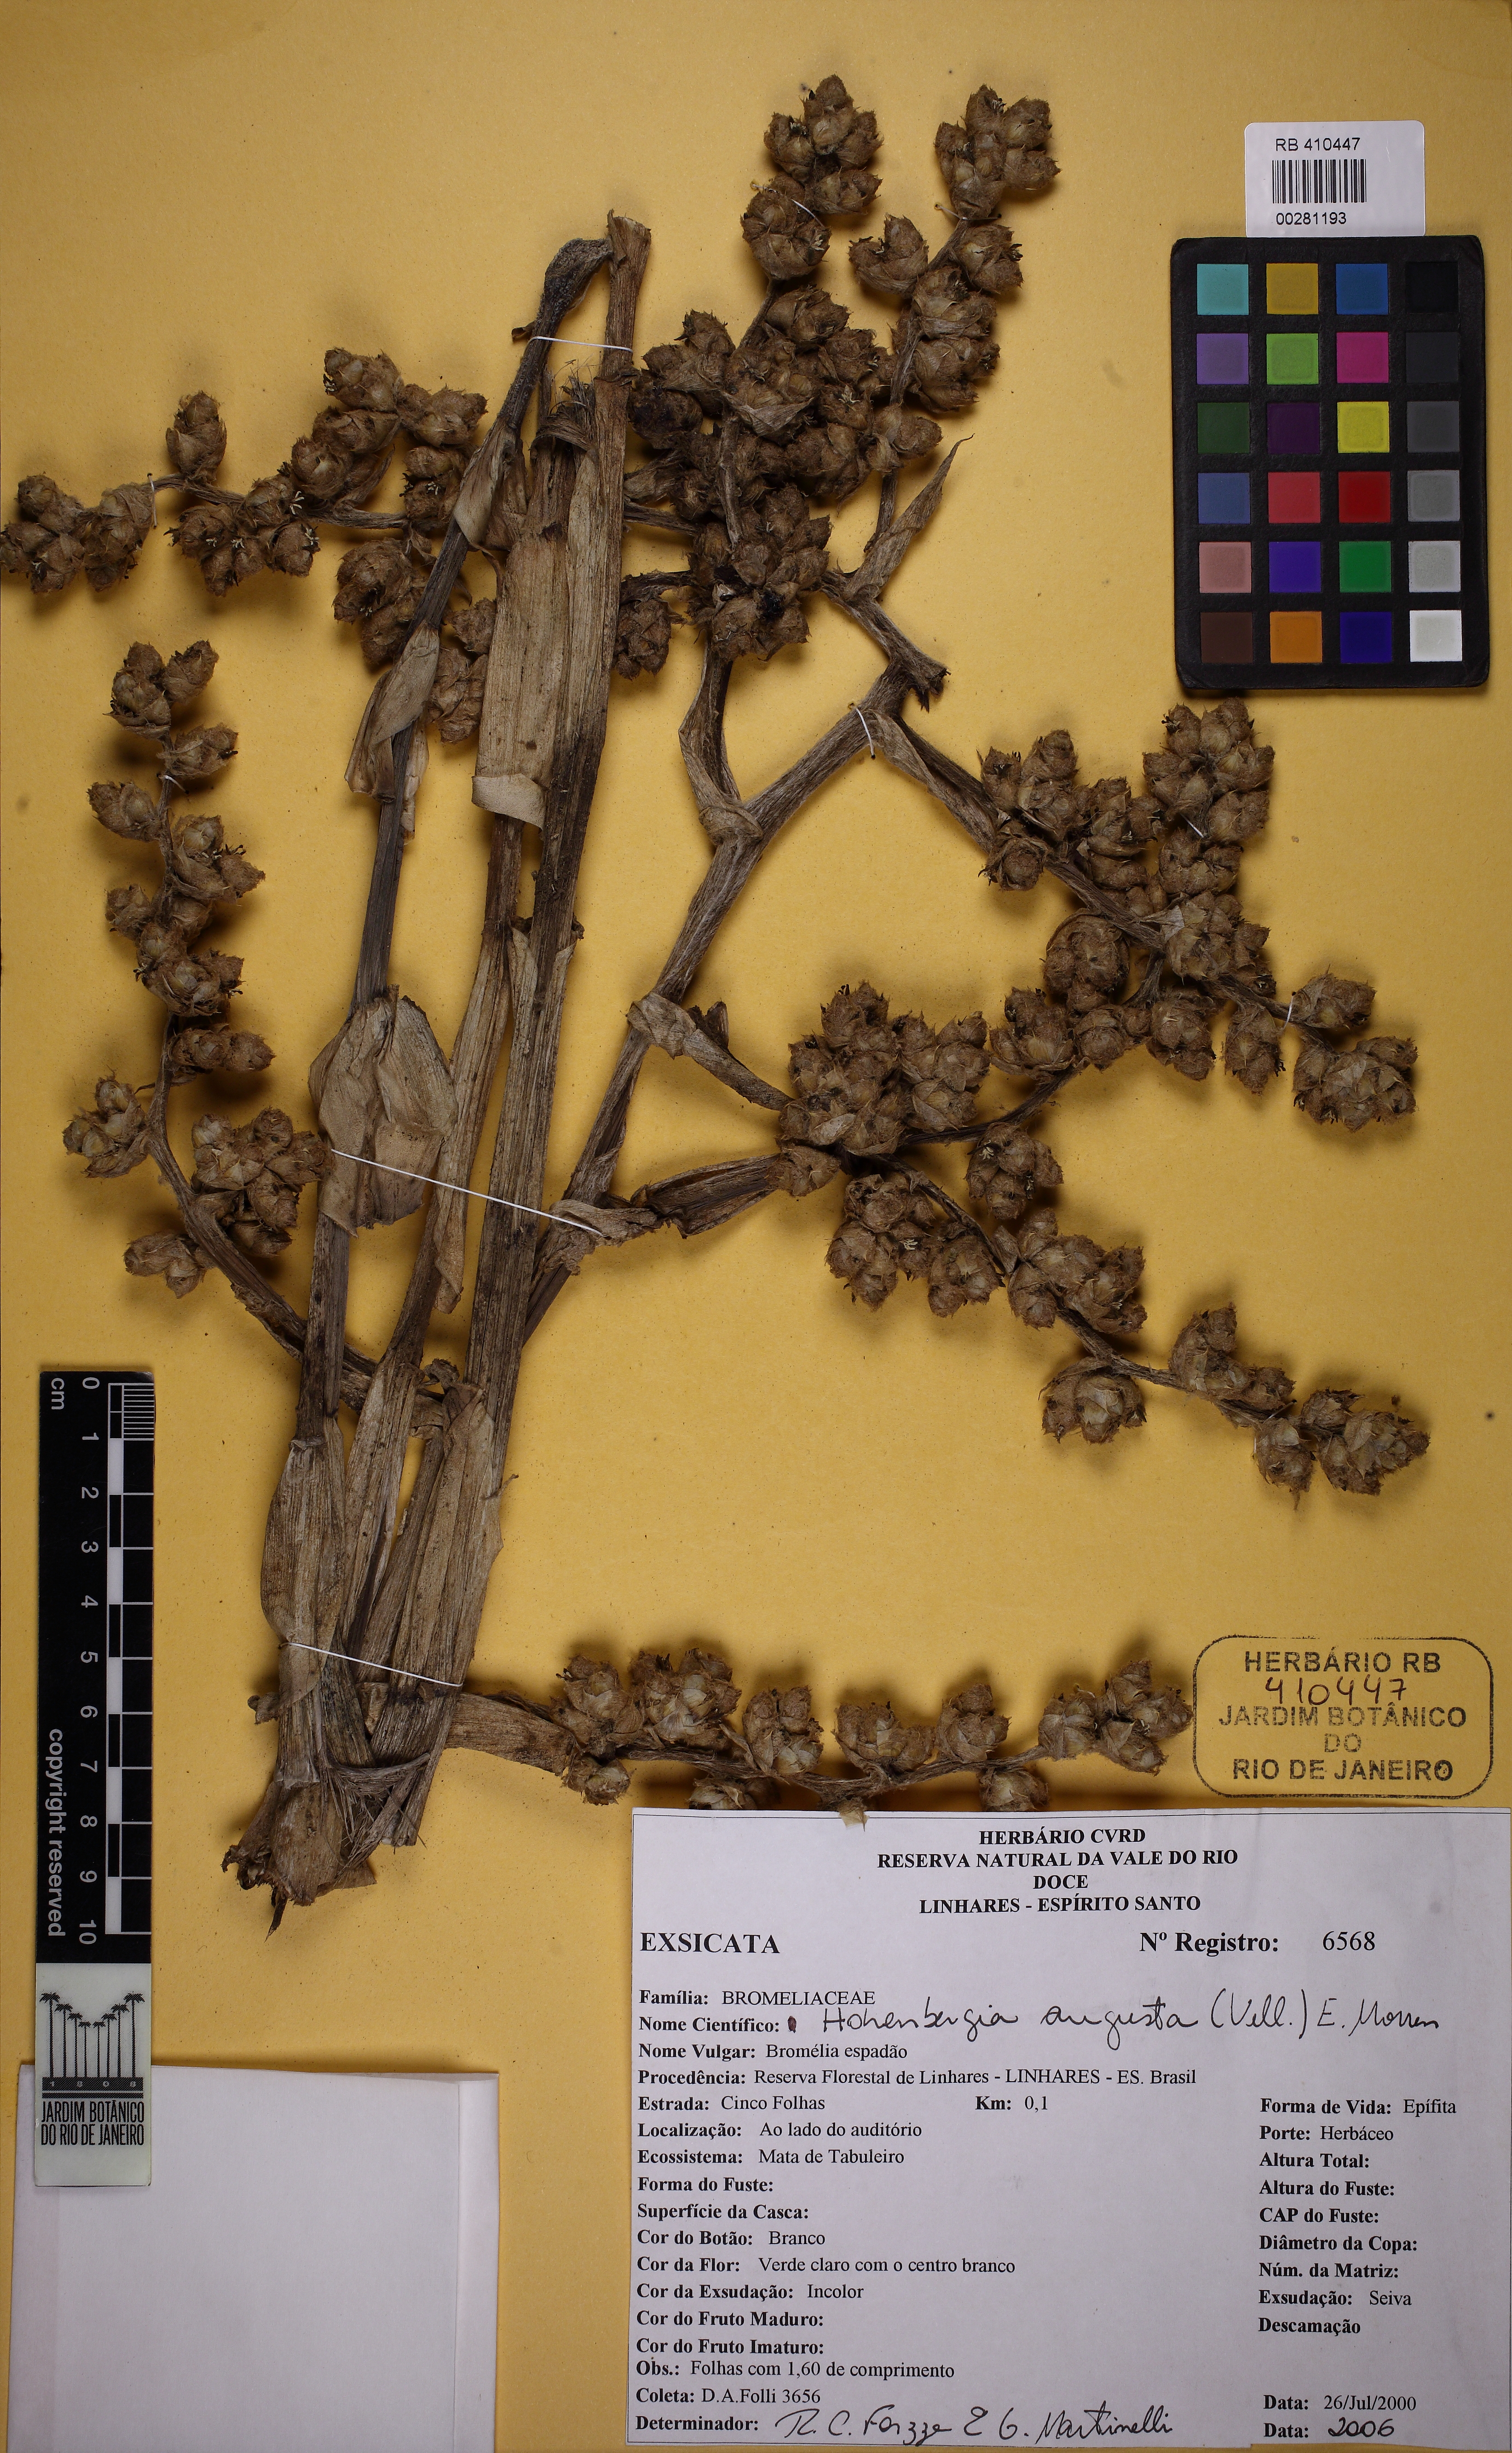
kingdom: Plantae
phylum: Tracheophyta
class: Liliopsida
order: Poales
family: Bromeliaceae
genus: Hohenbergia
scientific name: Hohenbergia augusta
